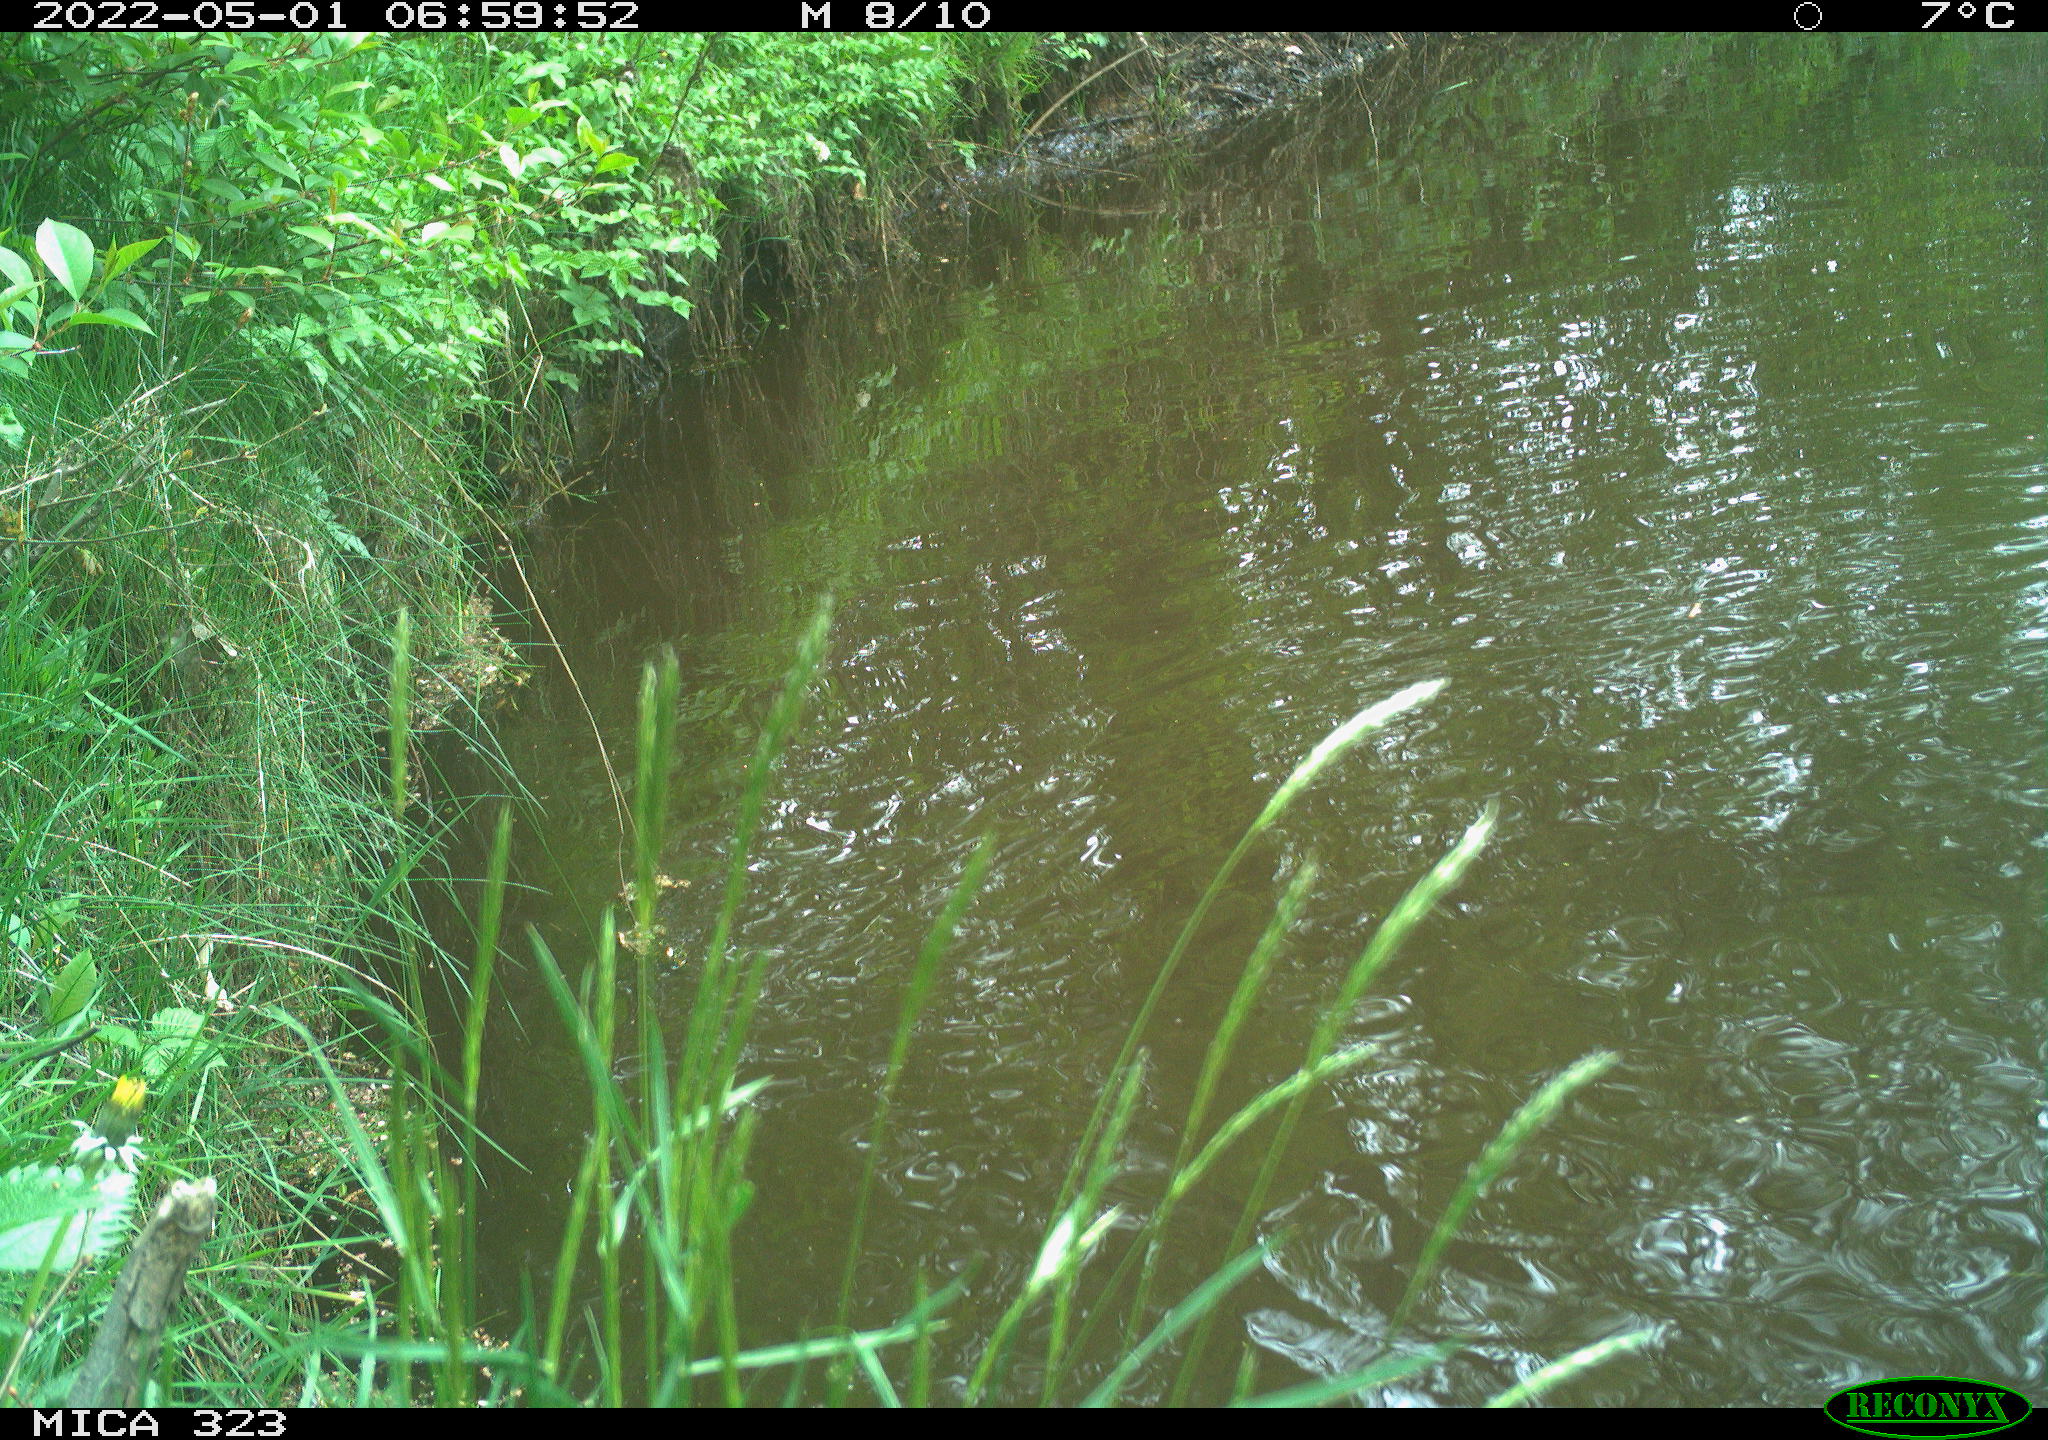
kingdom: Animalia
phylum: Chordata
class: Aves
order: Anseriformes
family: Anatidae
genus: Anas
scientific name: Anas
